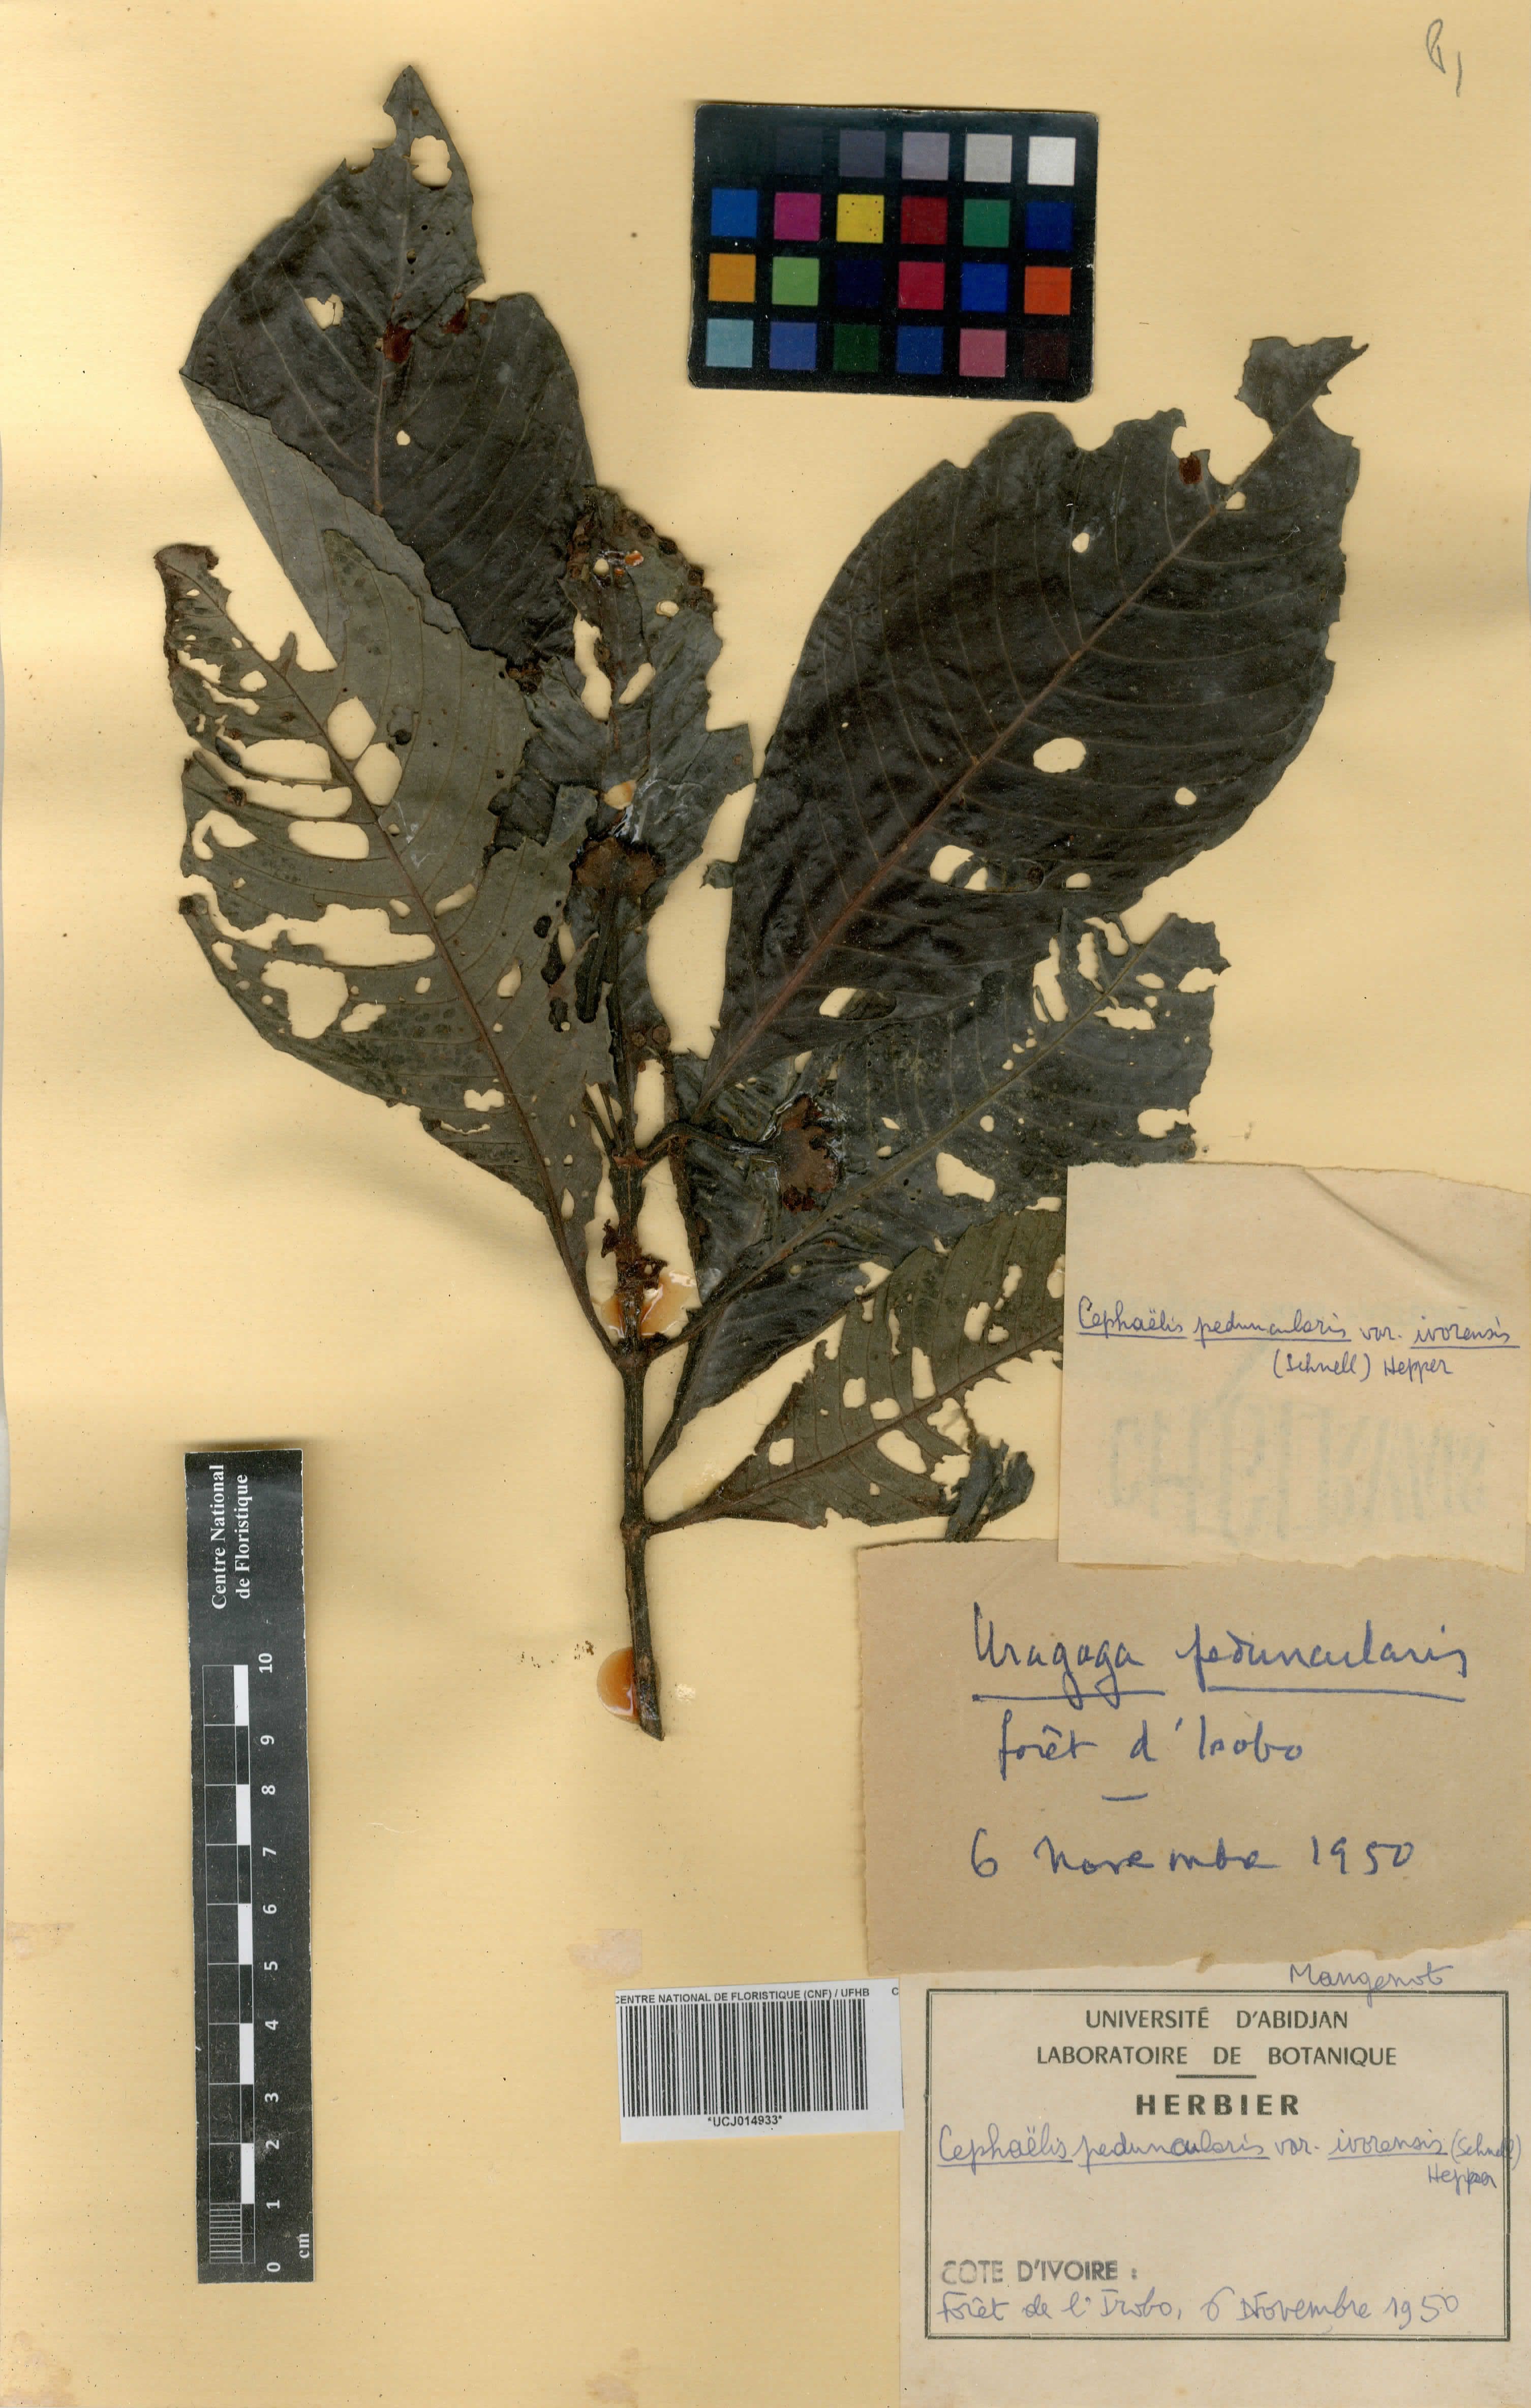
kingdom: Plantae
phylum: Tracheophyta
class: Magnoliopsida
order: Gentianales
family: Rubiaceae
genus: Psychotria
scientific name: Psychotria peduncularis
